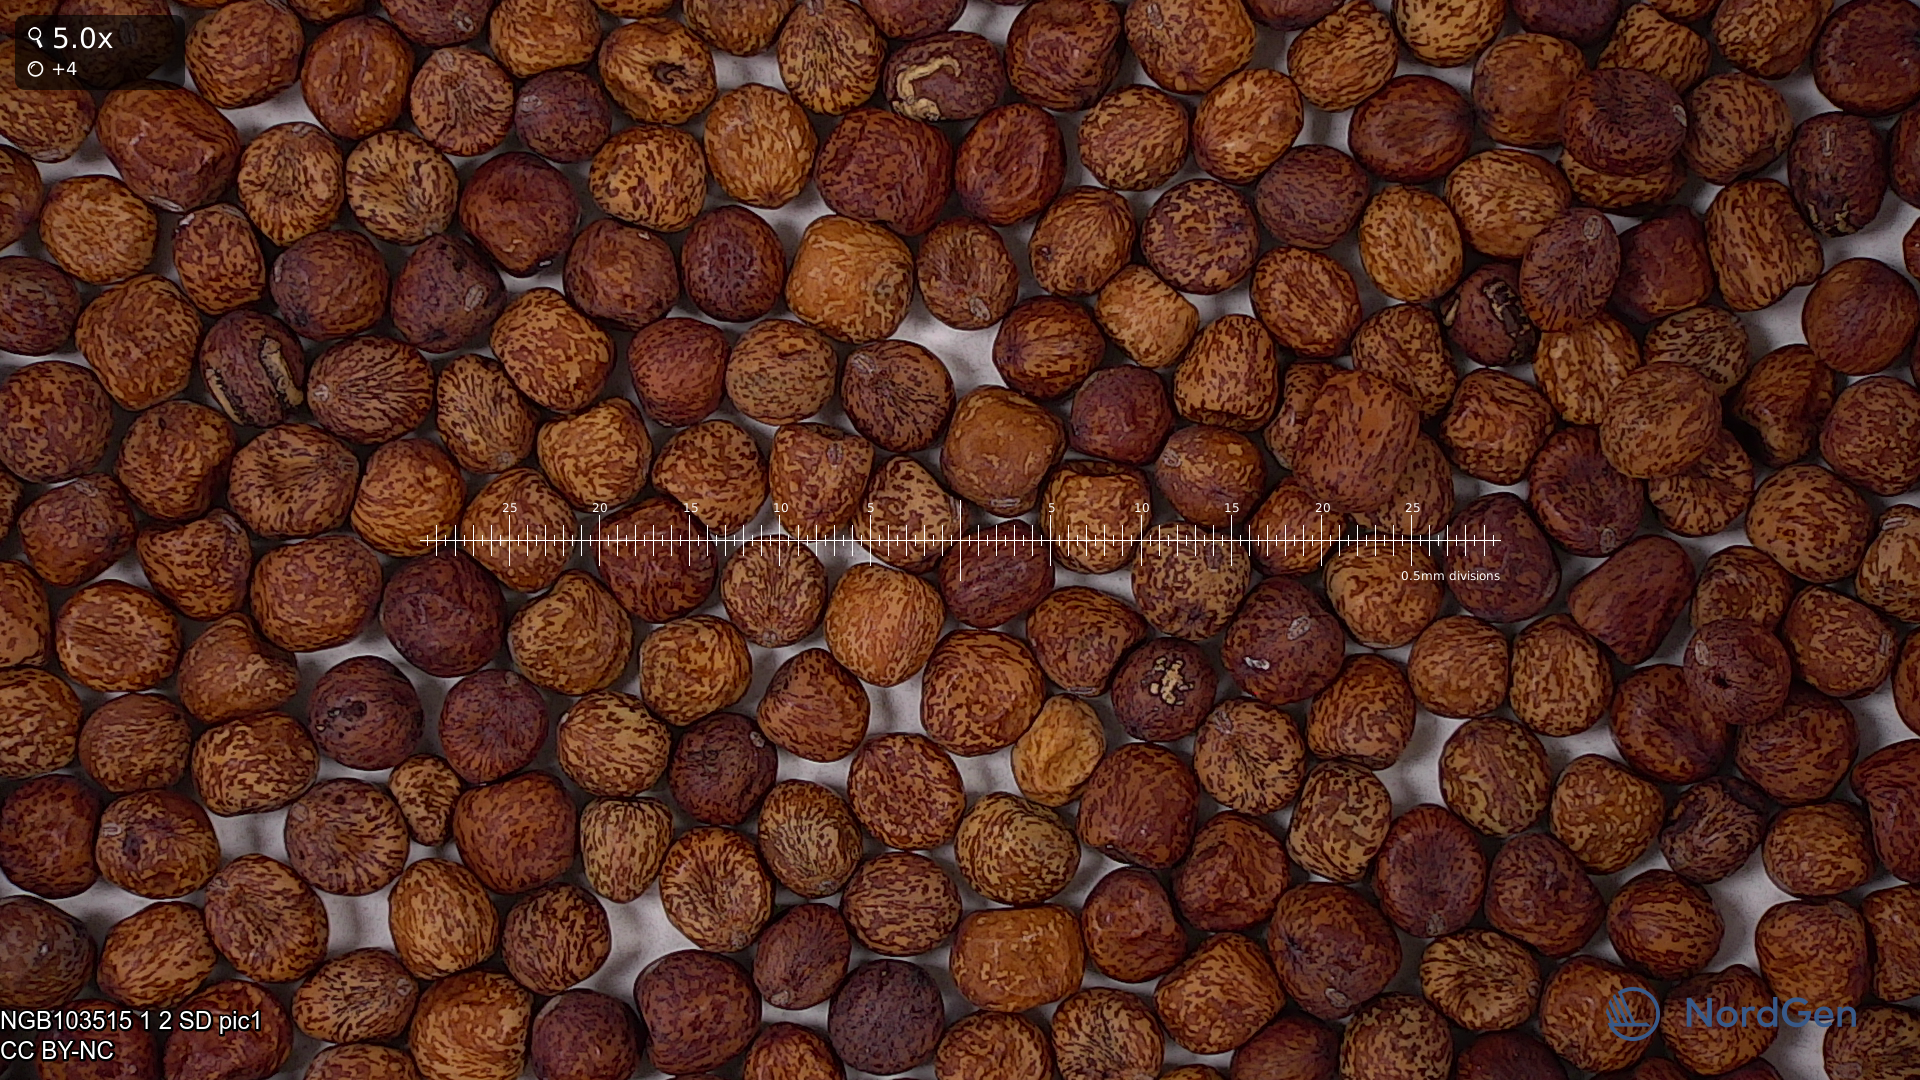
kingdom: Plantae
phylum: Tracheophyta
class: Magnoliopsida
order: Fabales
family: Fabaceae
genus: Lathyrus
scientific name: Lathyrus oleraceus
